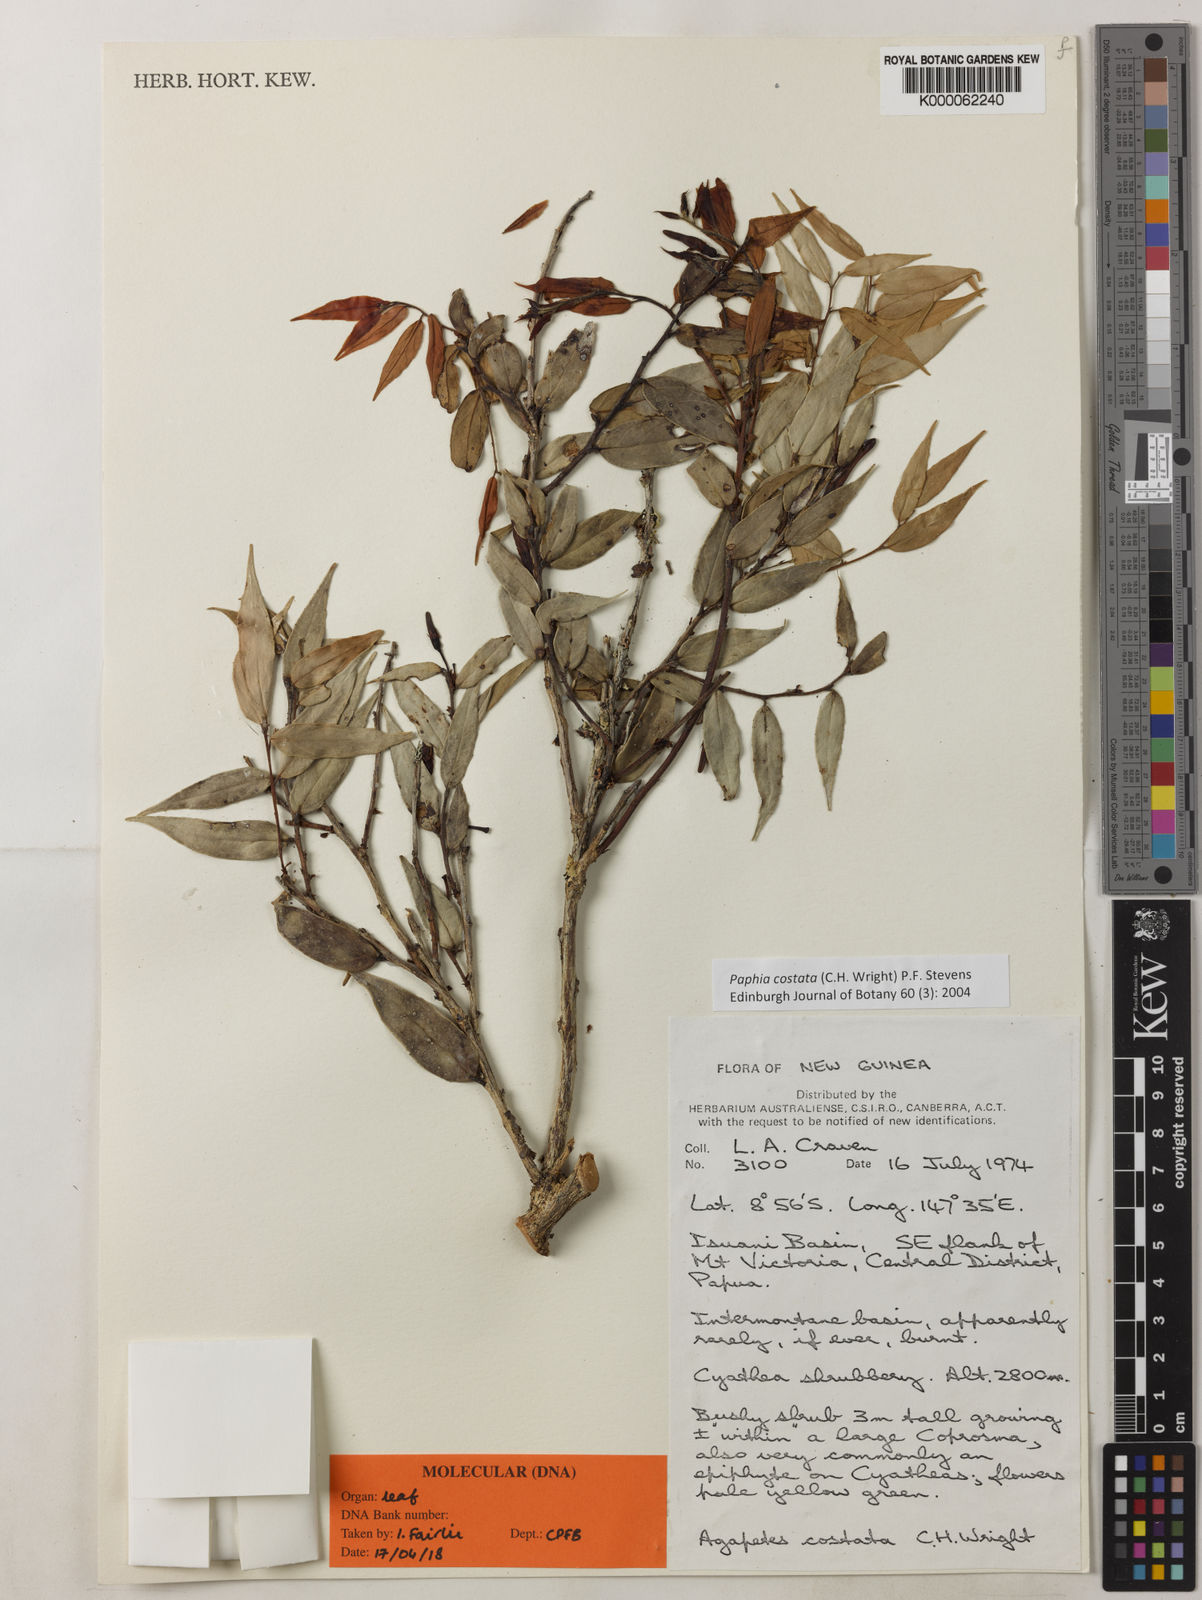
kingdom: Plantae
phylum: Tracheophyta
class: Magnoliopsida
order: Ericales
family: Ericaceae
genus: Paphia
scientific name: Paphia
